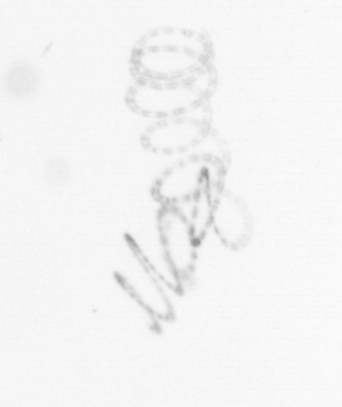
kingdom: Chromista
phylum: Ochrophyta
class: Bacillariophyceae
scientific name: Bacillariophyceae
